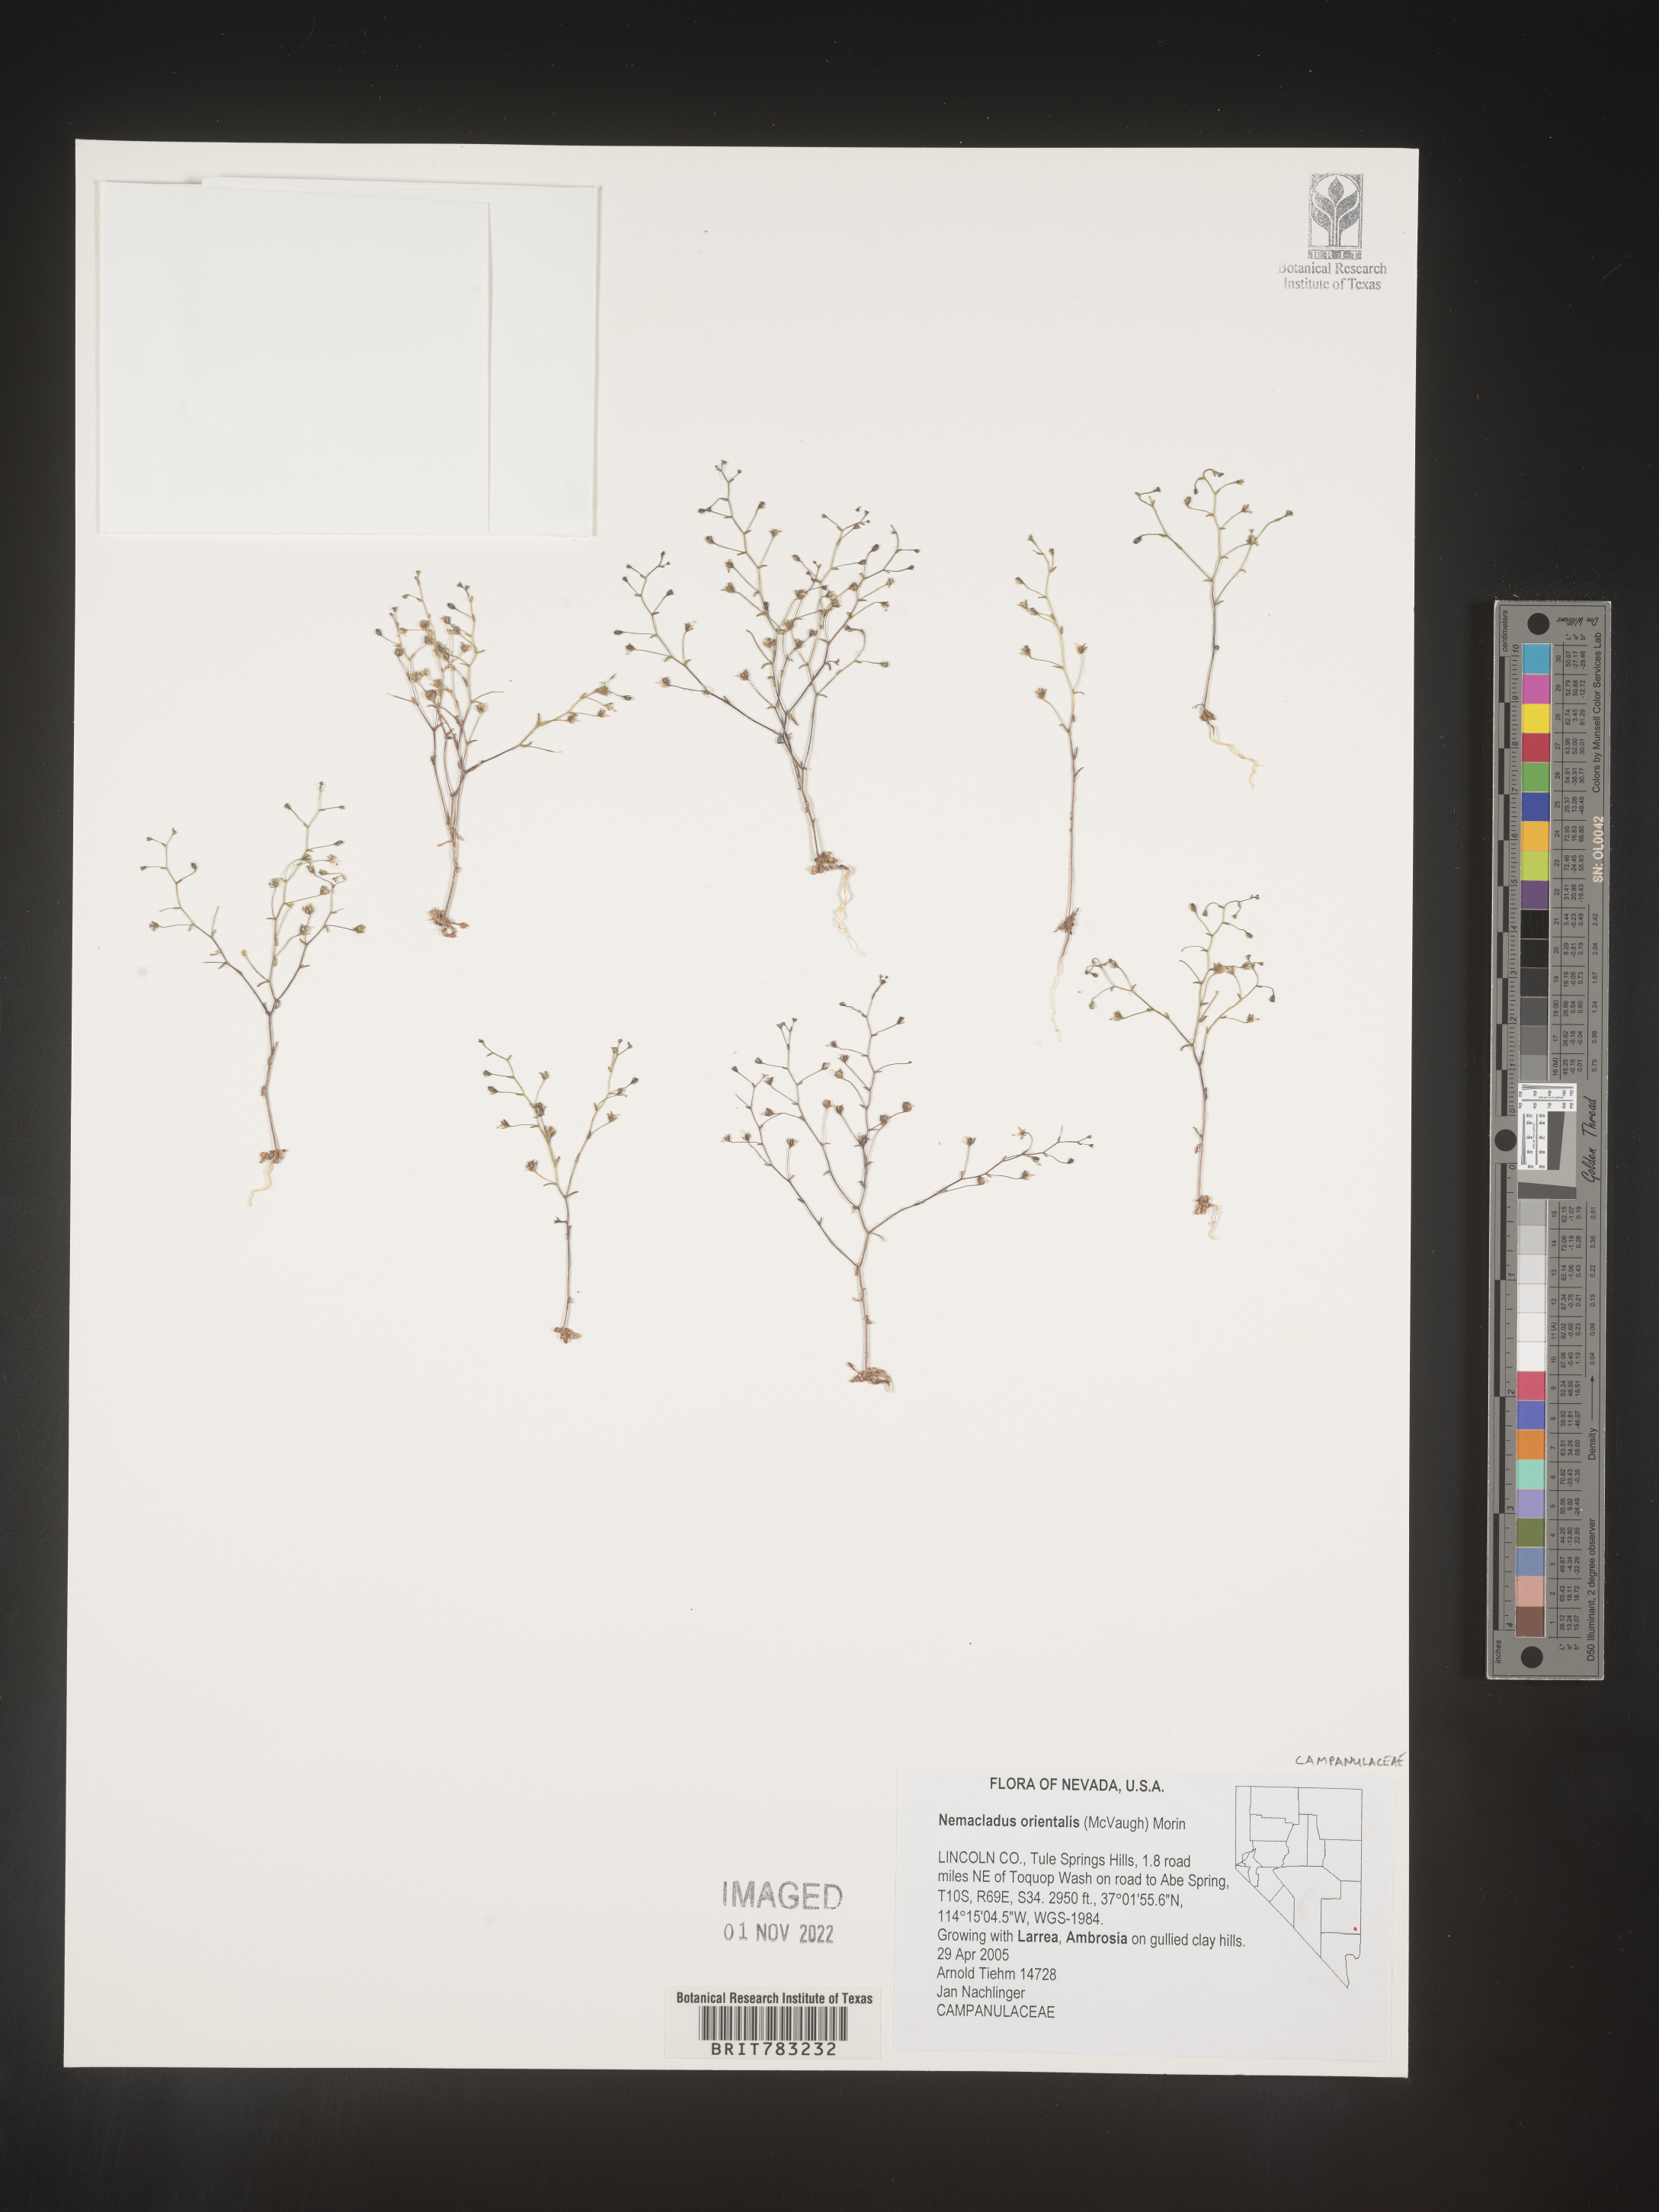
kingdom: Plantae
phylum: Tracheophyta
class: Magnoliopsida
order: Asterales
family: Campanulaceae
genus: Nemacladus
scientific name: Nemacladus
